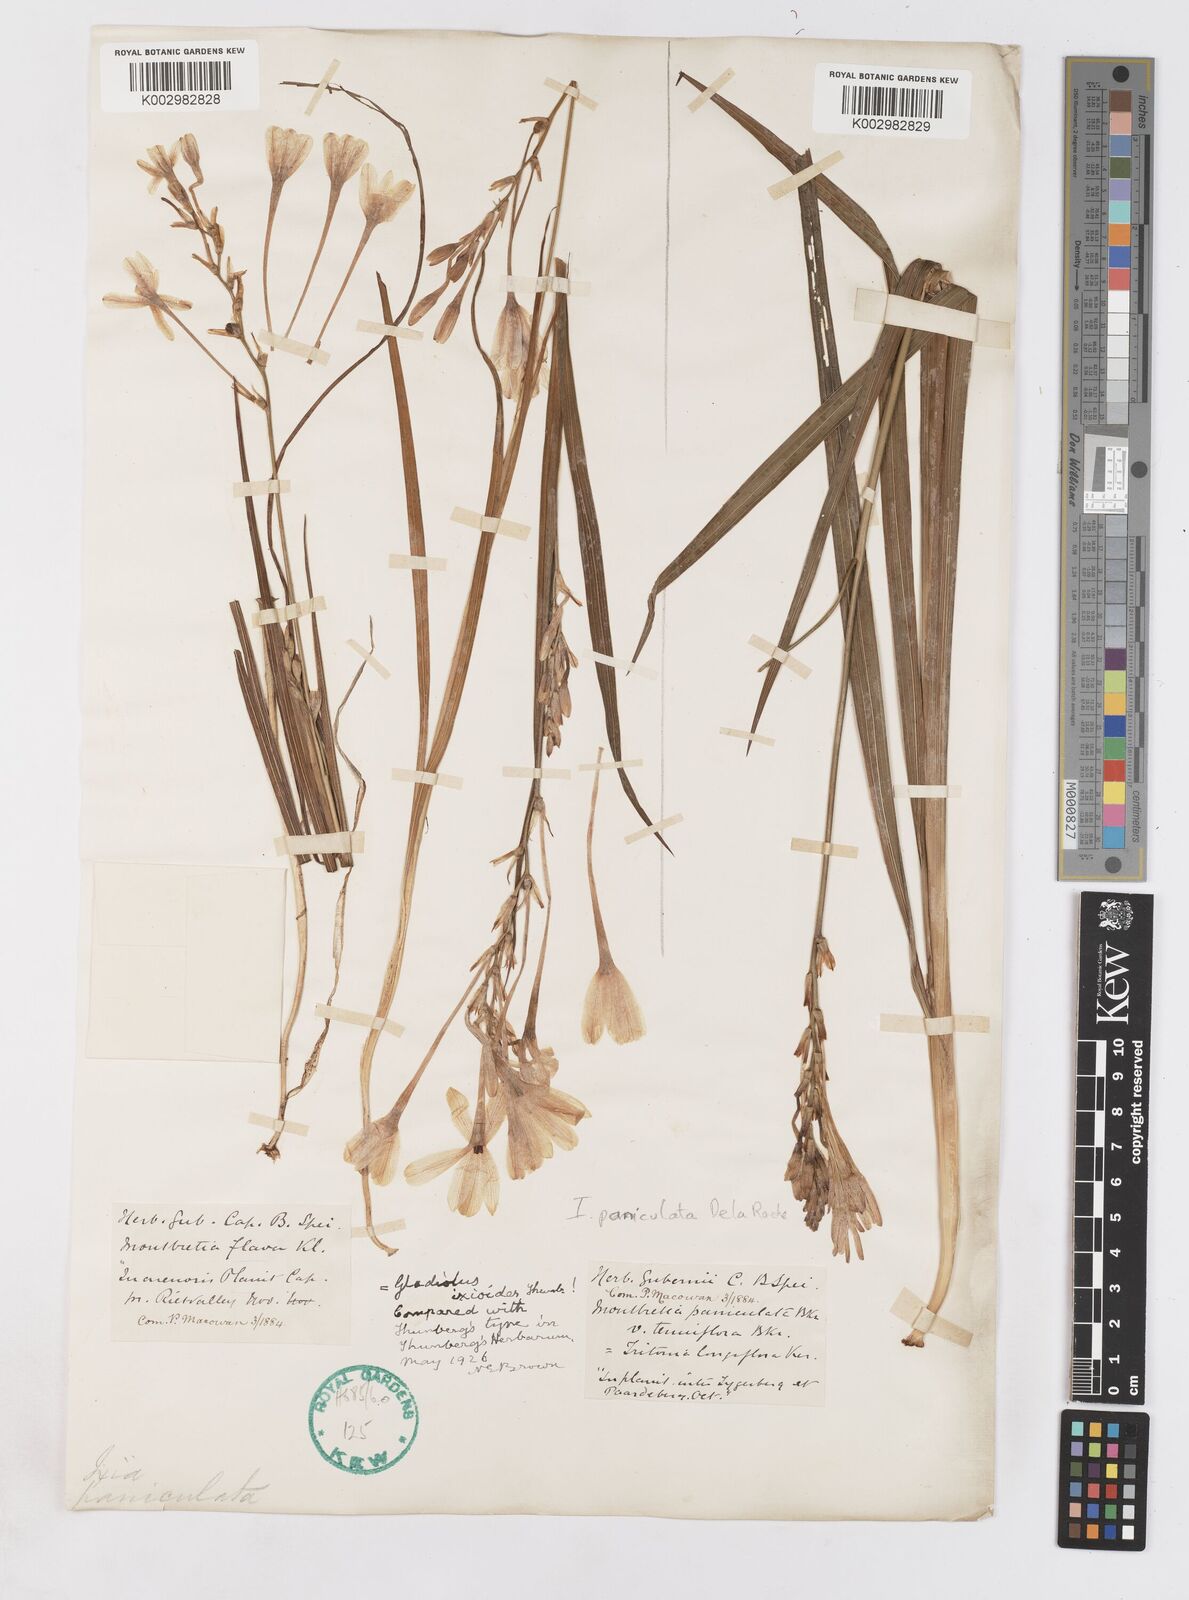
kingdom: Plantae
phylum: Tracheophyta
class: Liliopsida
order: Asparagales
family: Iridaceae
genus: Ixia
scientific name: Ixia paniculata
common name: Tubular corn-lily
